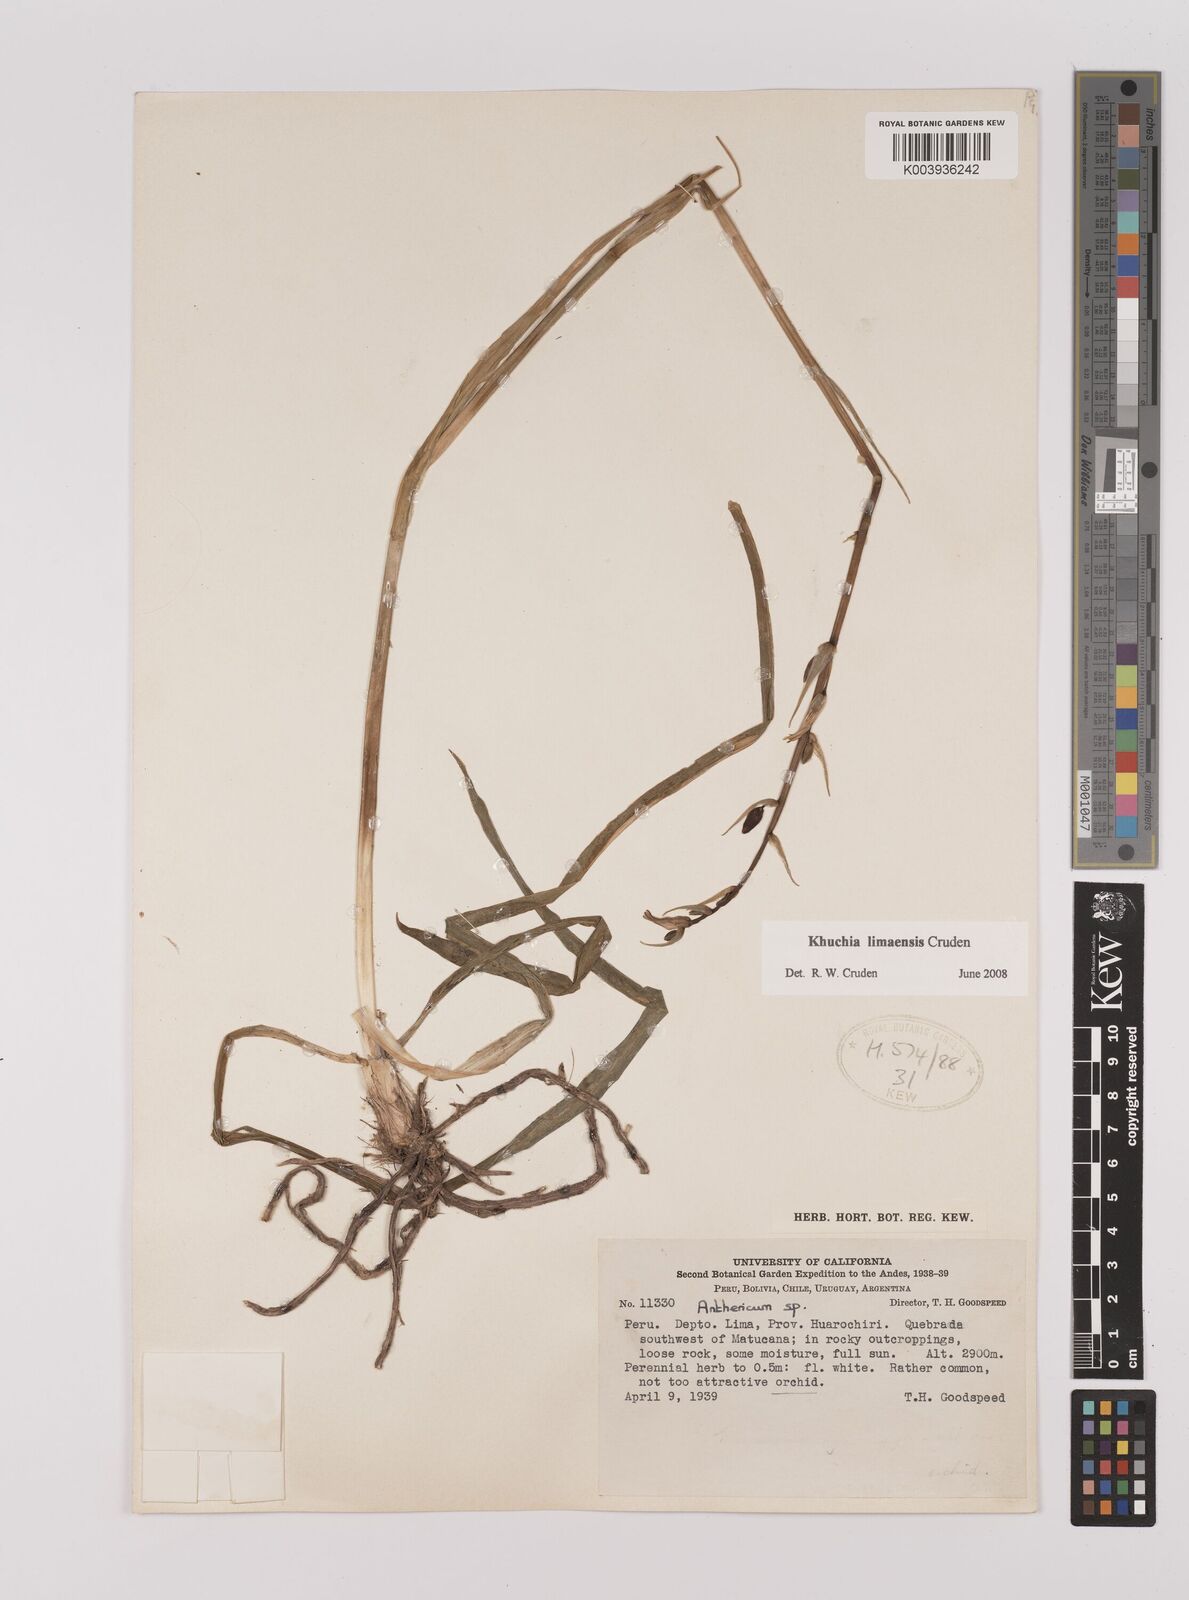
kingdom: Plantae
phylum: Tracheophyta
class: Liliopsida
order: Asparagales
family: Asparagaceae
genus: Echeandia
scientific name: Echeandia
